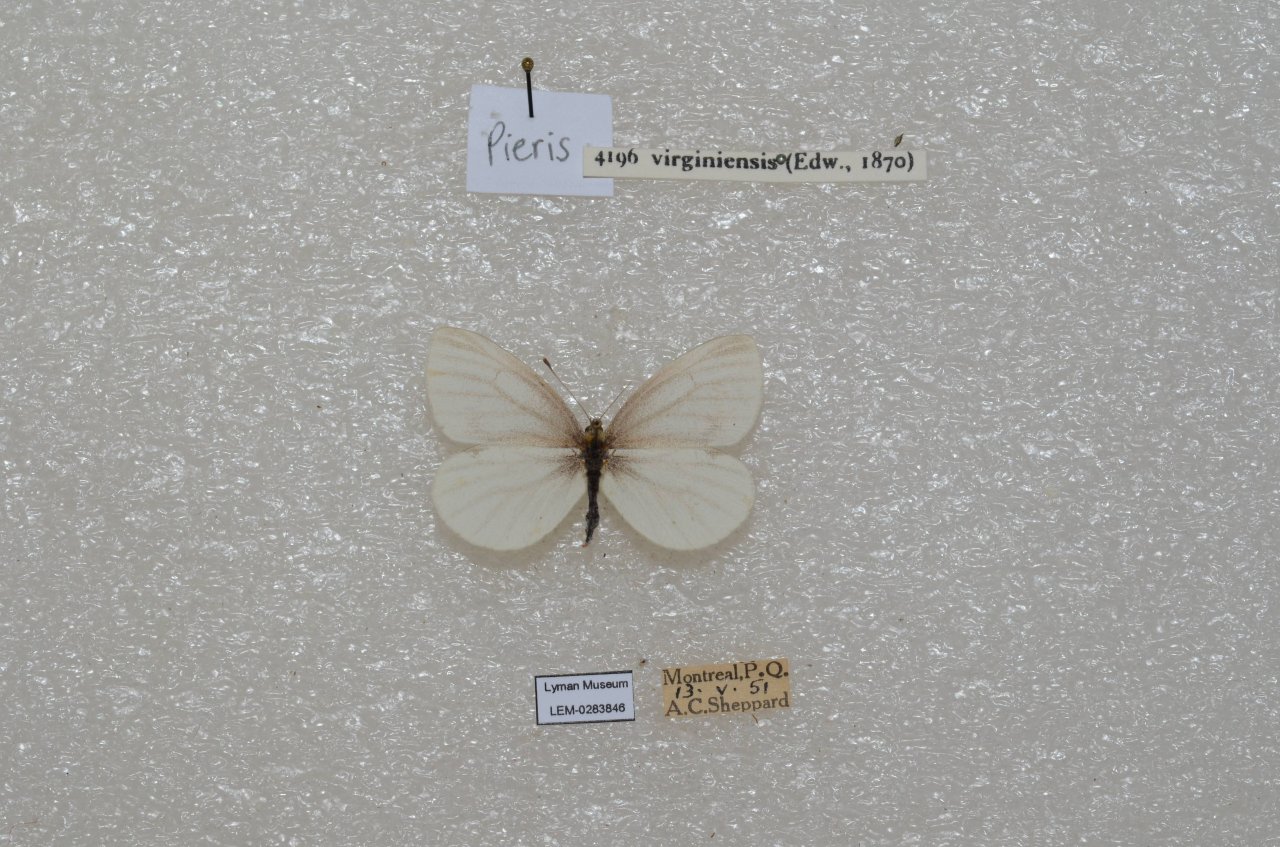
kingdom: Animalia
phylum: Arthropoda
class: Insecta
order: Lepidoptera
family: Pieridae
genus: Pieris
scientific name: Pieris virginiensis
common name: West Virginia White
